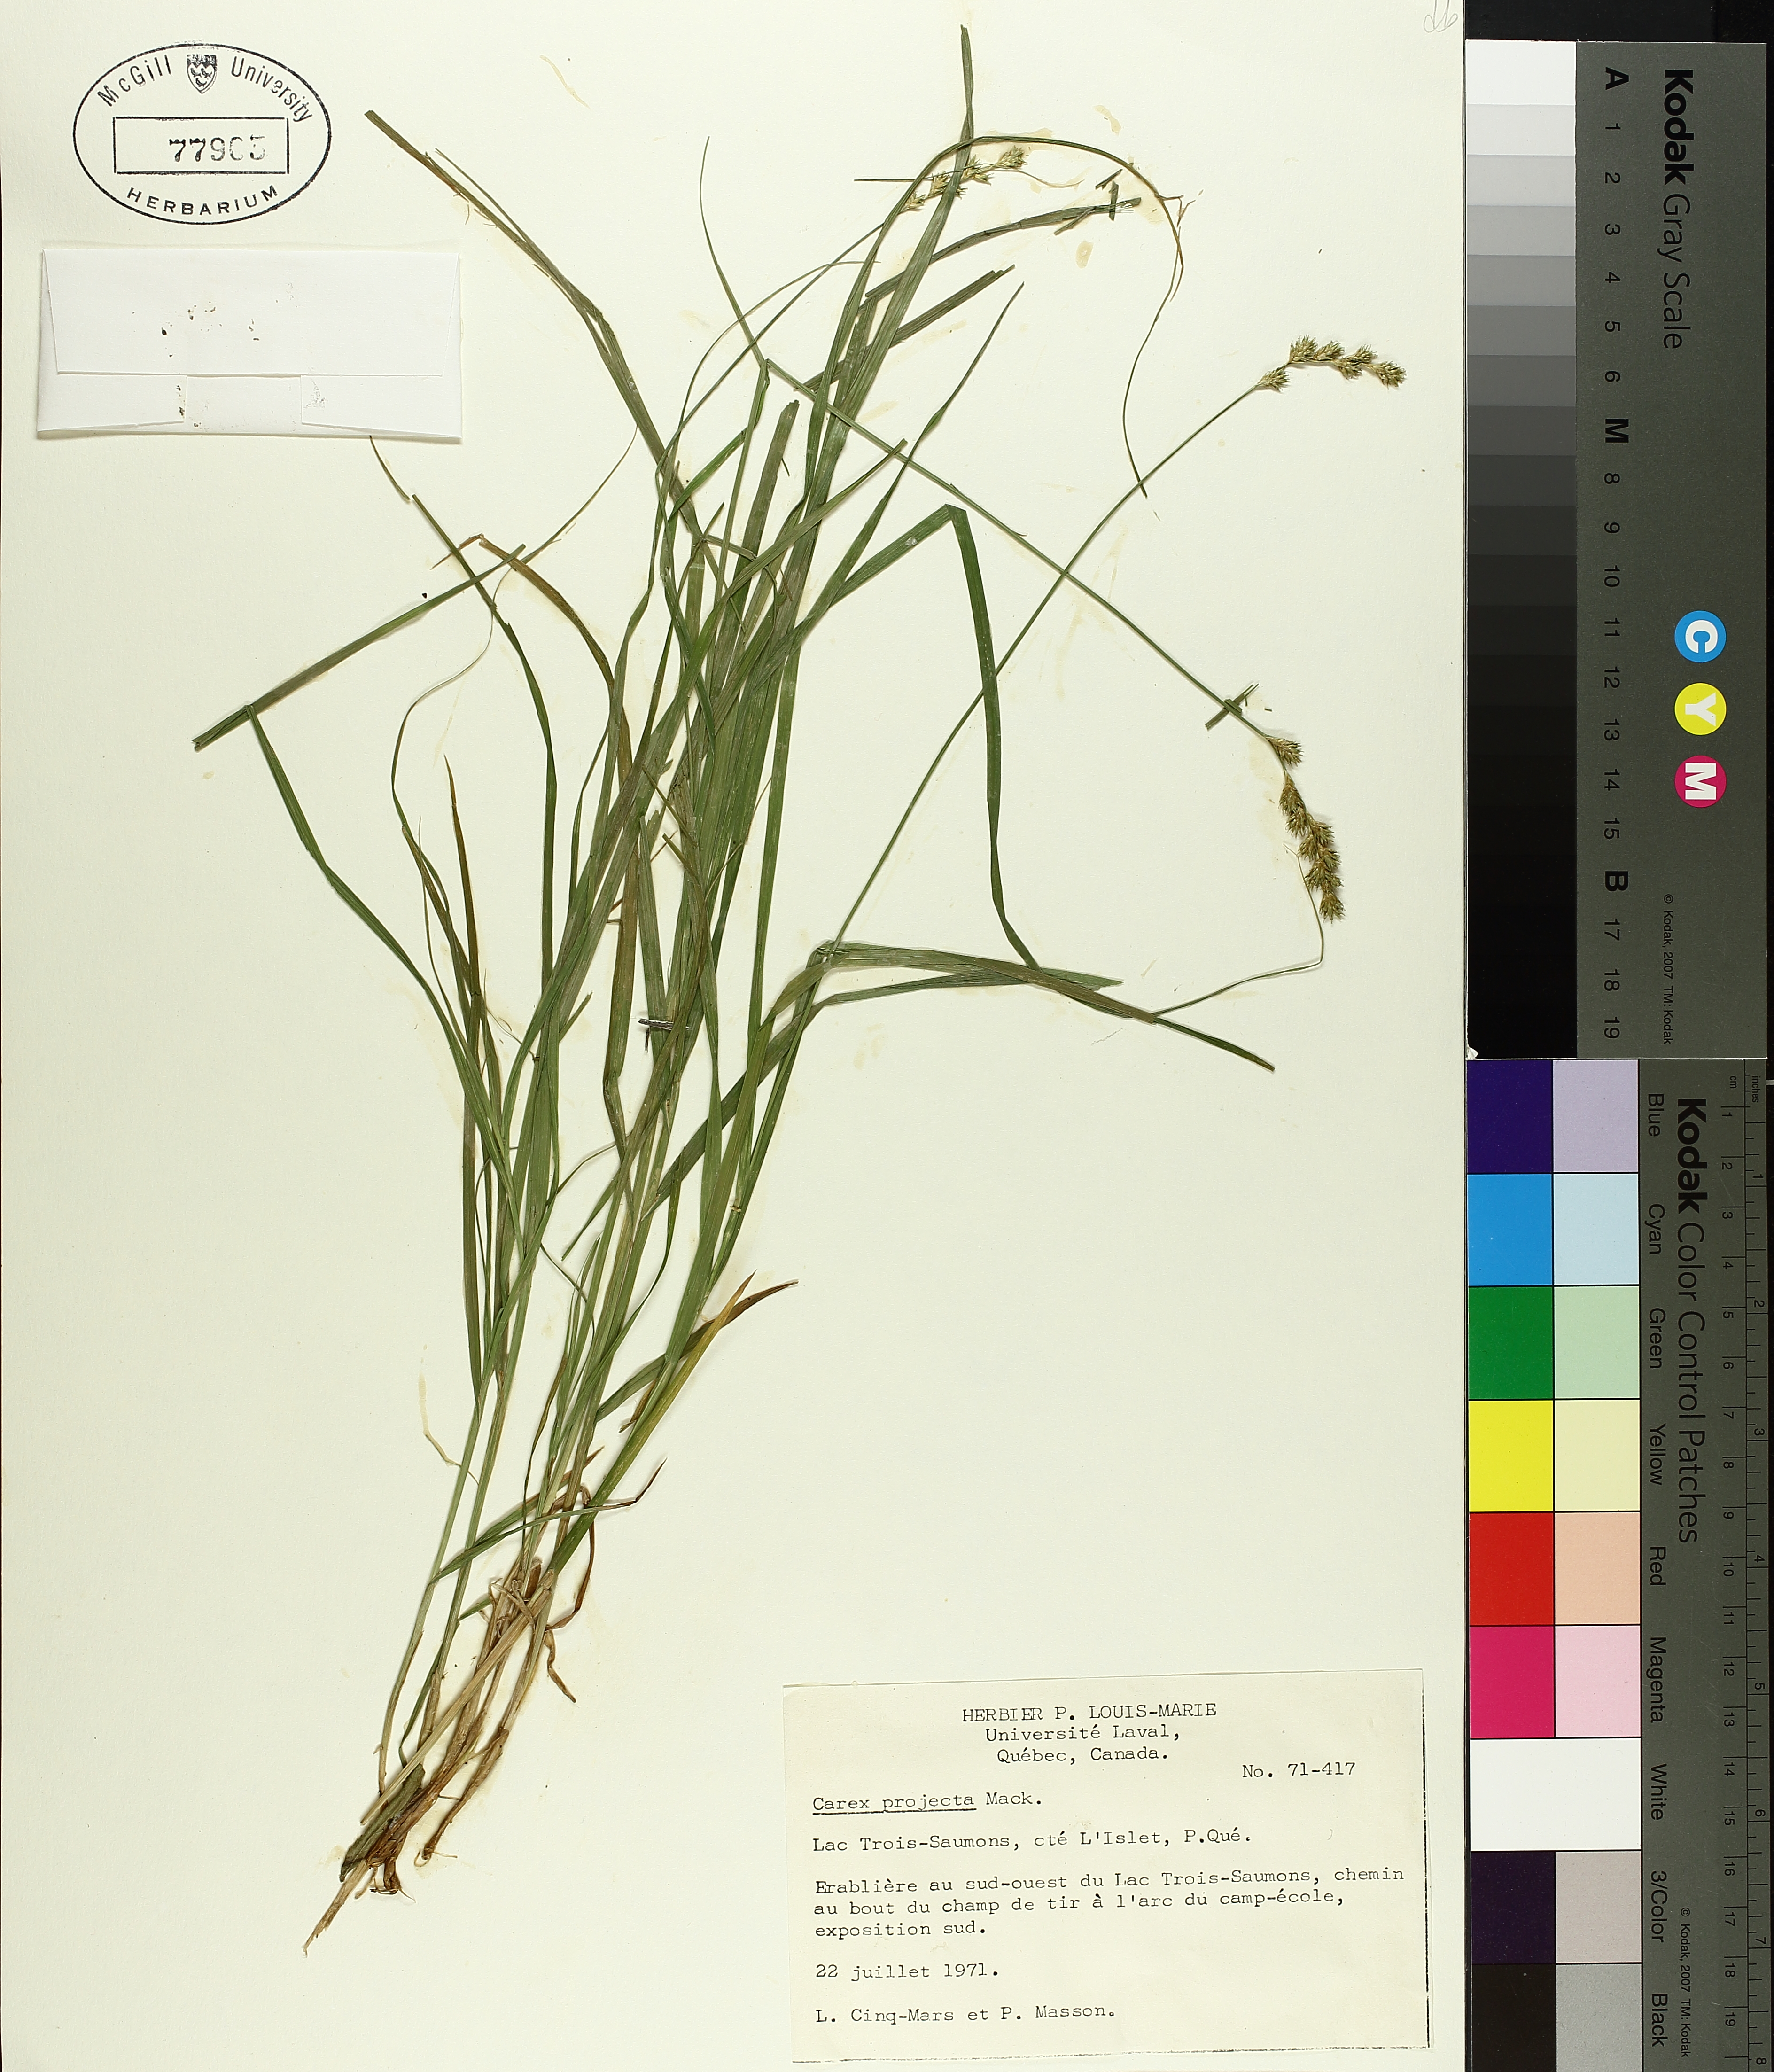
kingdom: Plantae
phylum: Tracheophyta
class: Liliopsida
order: Poales
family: Cyperaceae
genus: Carex
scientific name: Carex projecta
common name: Loose-headed oval sedge
